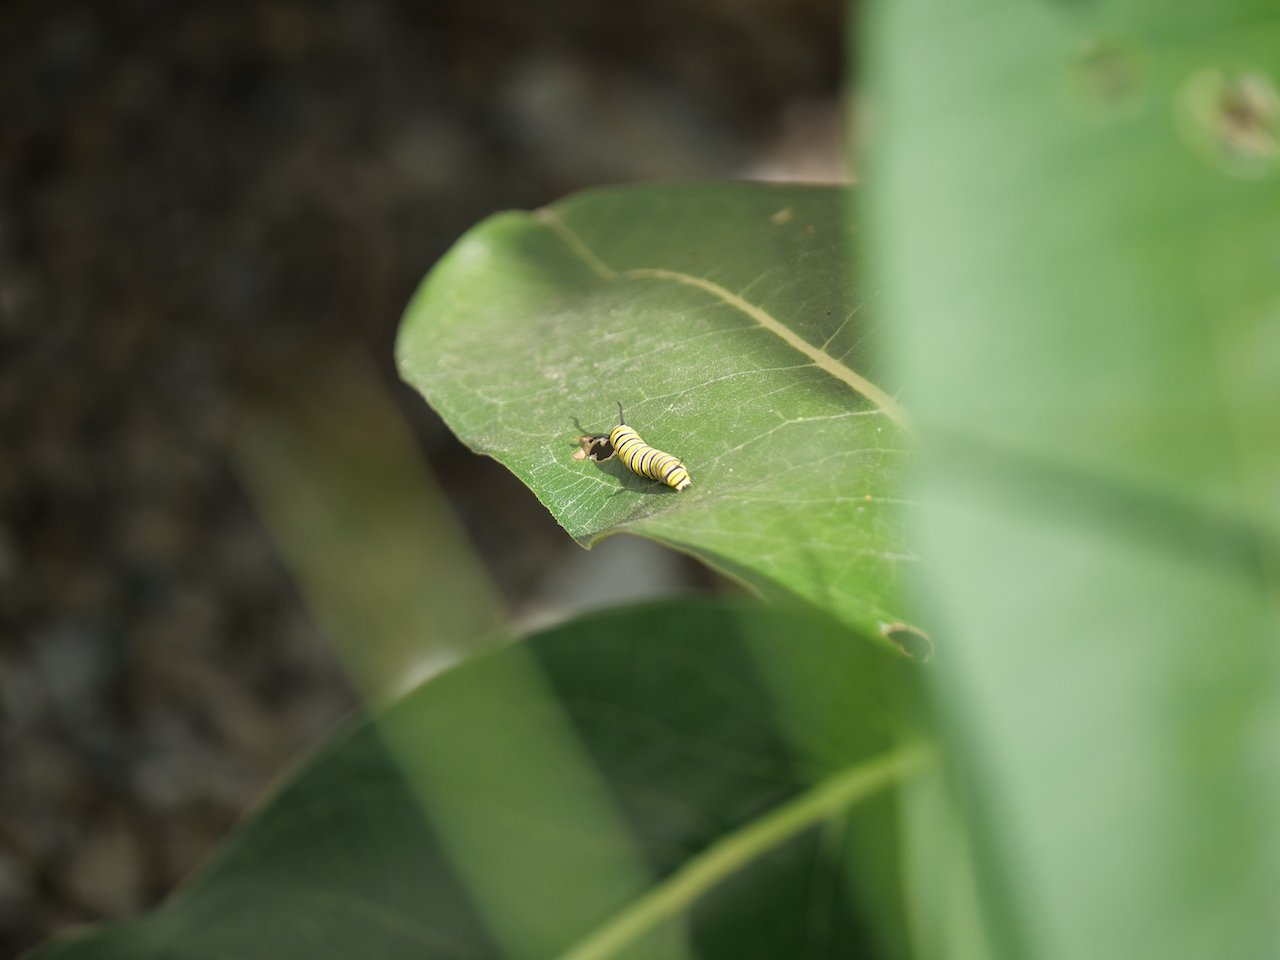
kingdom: Animalia
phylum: Arthropoda
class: Insecta
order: Lepidoptera
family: Nymphalidae
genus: Danaus
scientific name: Danaus plexippus
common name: Monarch
